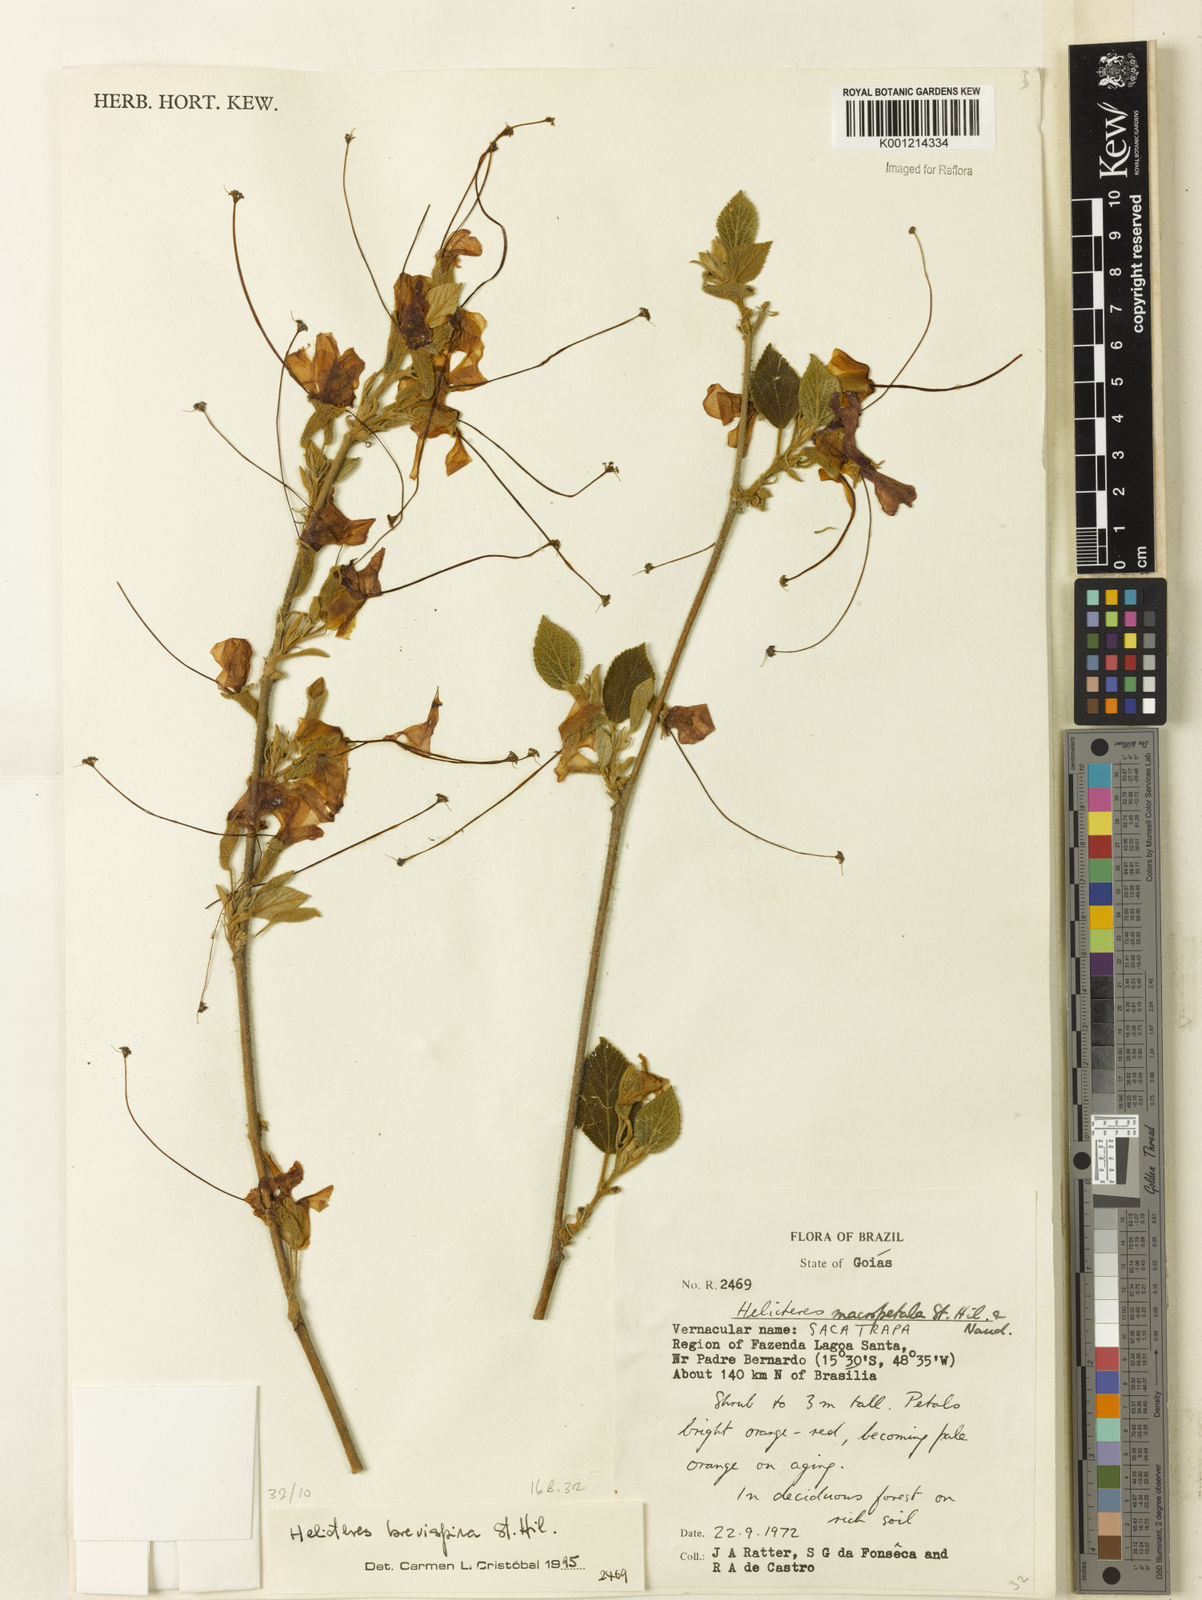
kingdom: Plantae
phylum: Tracheophyta
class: Magnoliopsida
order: Malvales
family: Malvaceae
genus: Helicteres
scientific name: Helicteres
